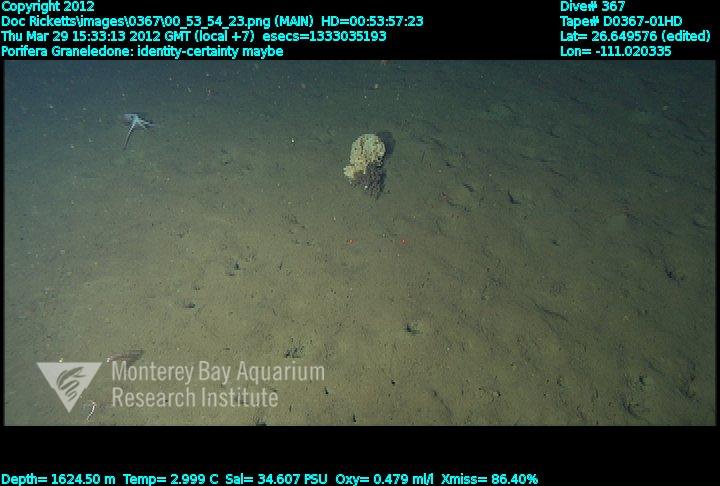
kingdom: Animalia
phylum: Porifera
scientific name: Porifera
